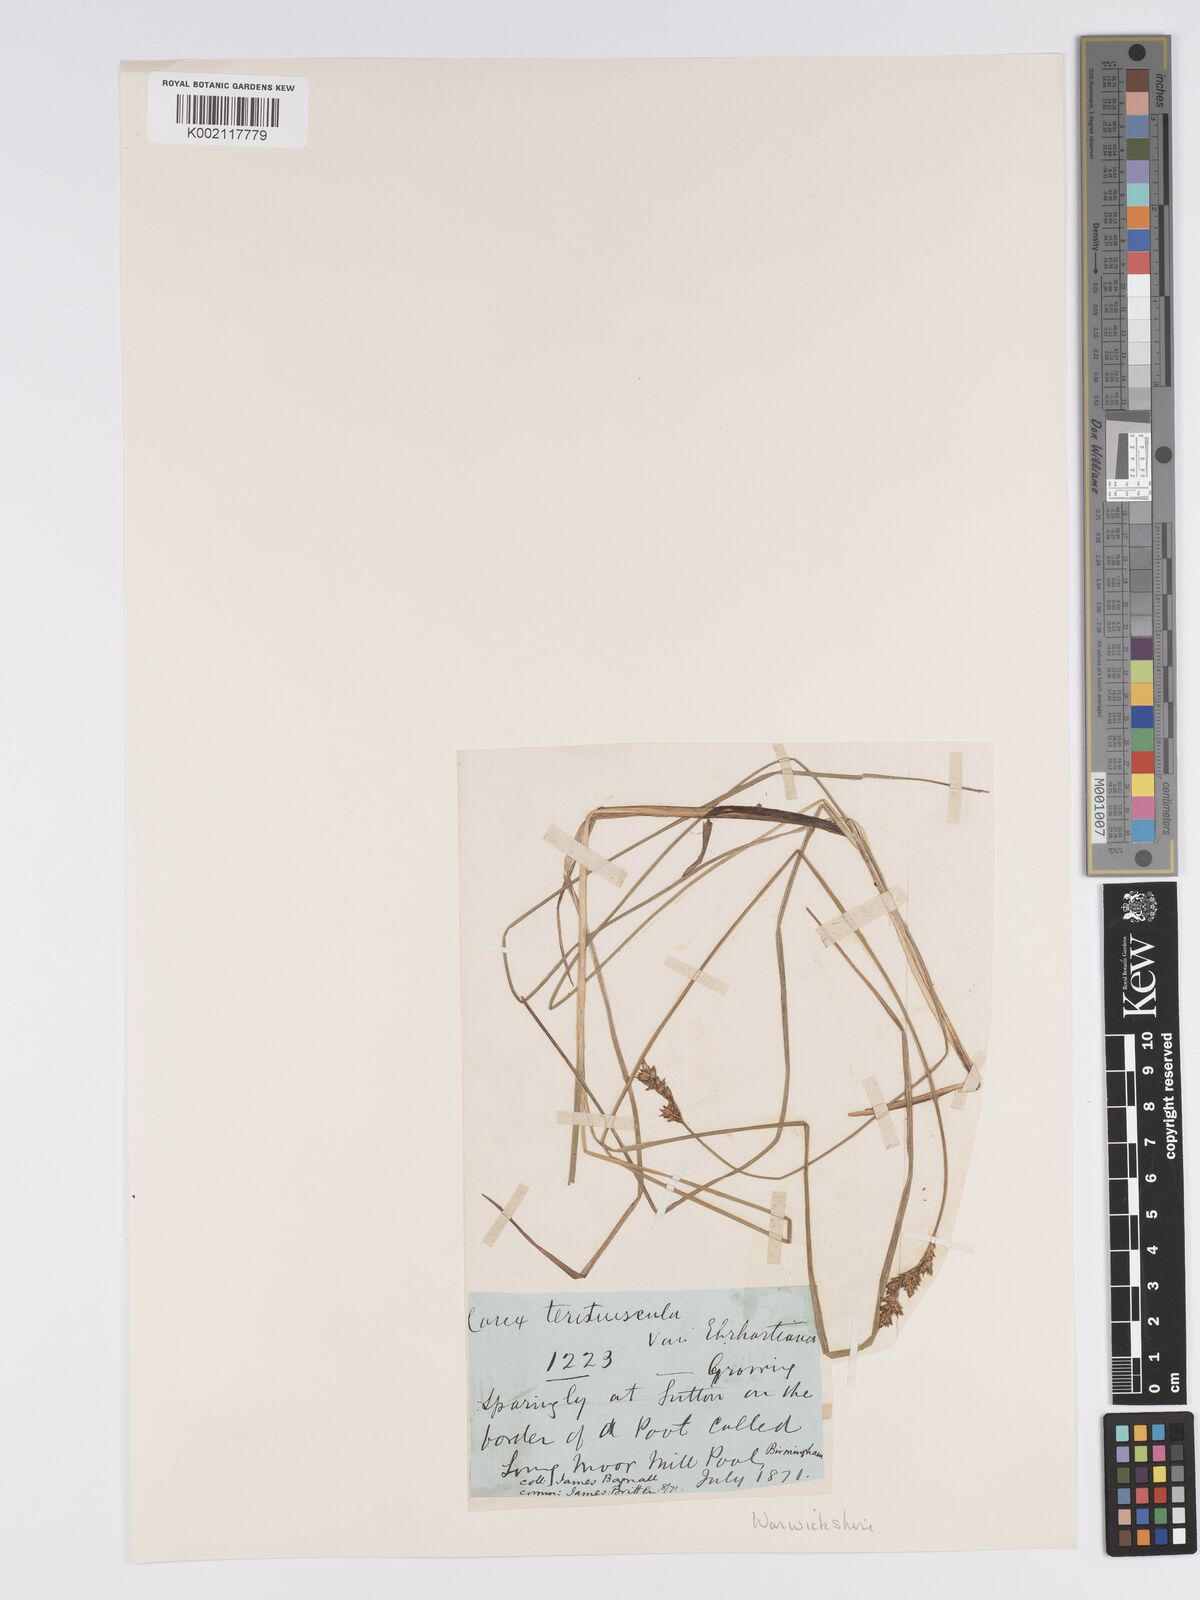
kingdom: Plantae
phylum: Tracheophyta
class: Liliopsida
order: Poales
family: Cyperaceae
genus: Carex
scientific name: Carex diandra
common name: Lesser tussock-sedge
